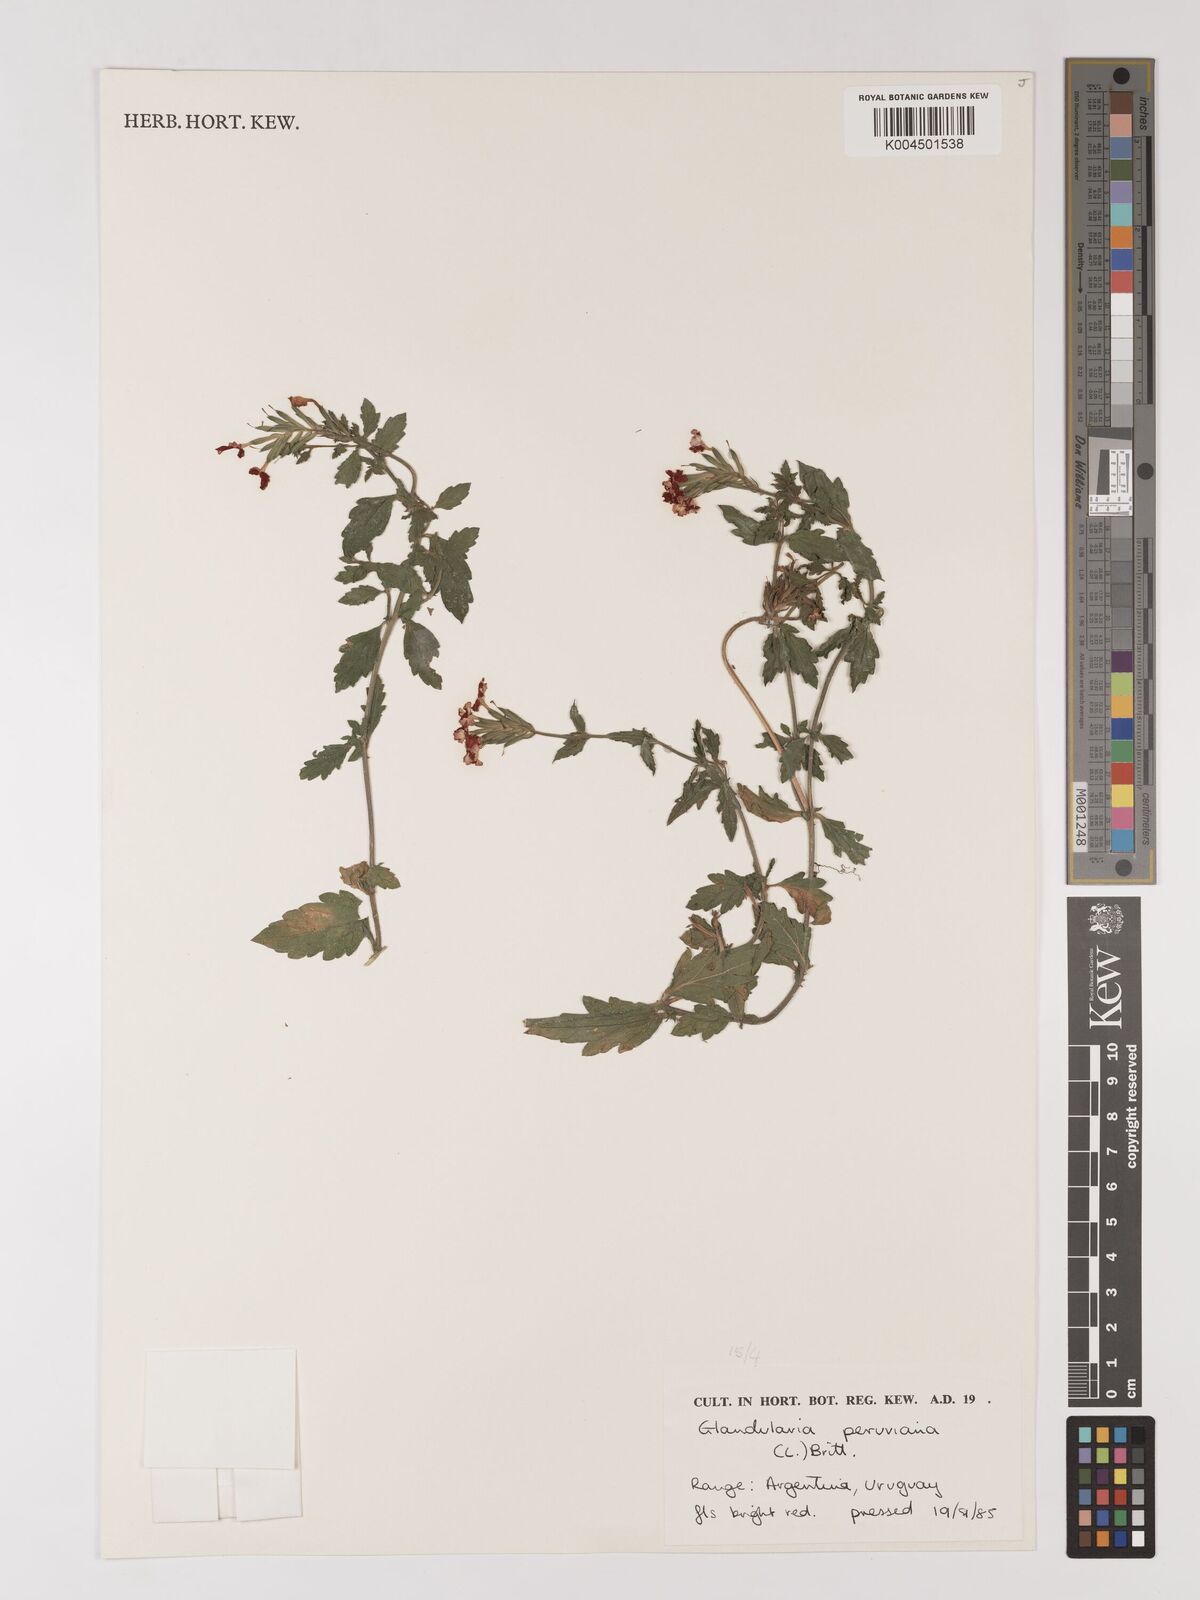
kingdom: Plantae
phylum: Tracheophyta
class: Magnoliopsida
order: Lamiales
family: Verbenaceae
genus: Verbena
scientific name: Verbena peruviana
